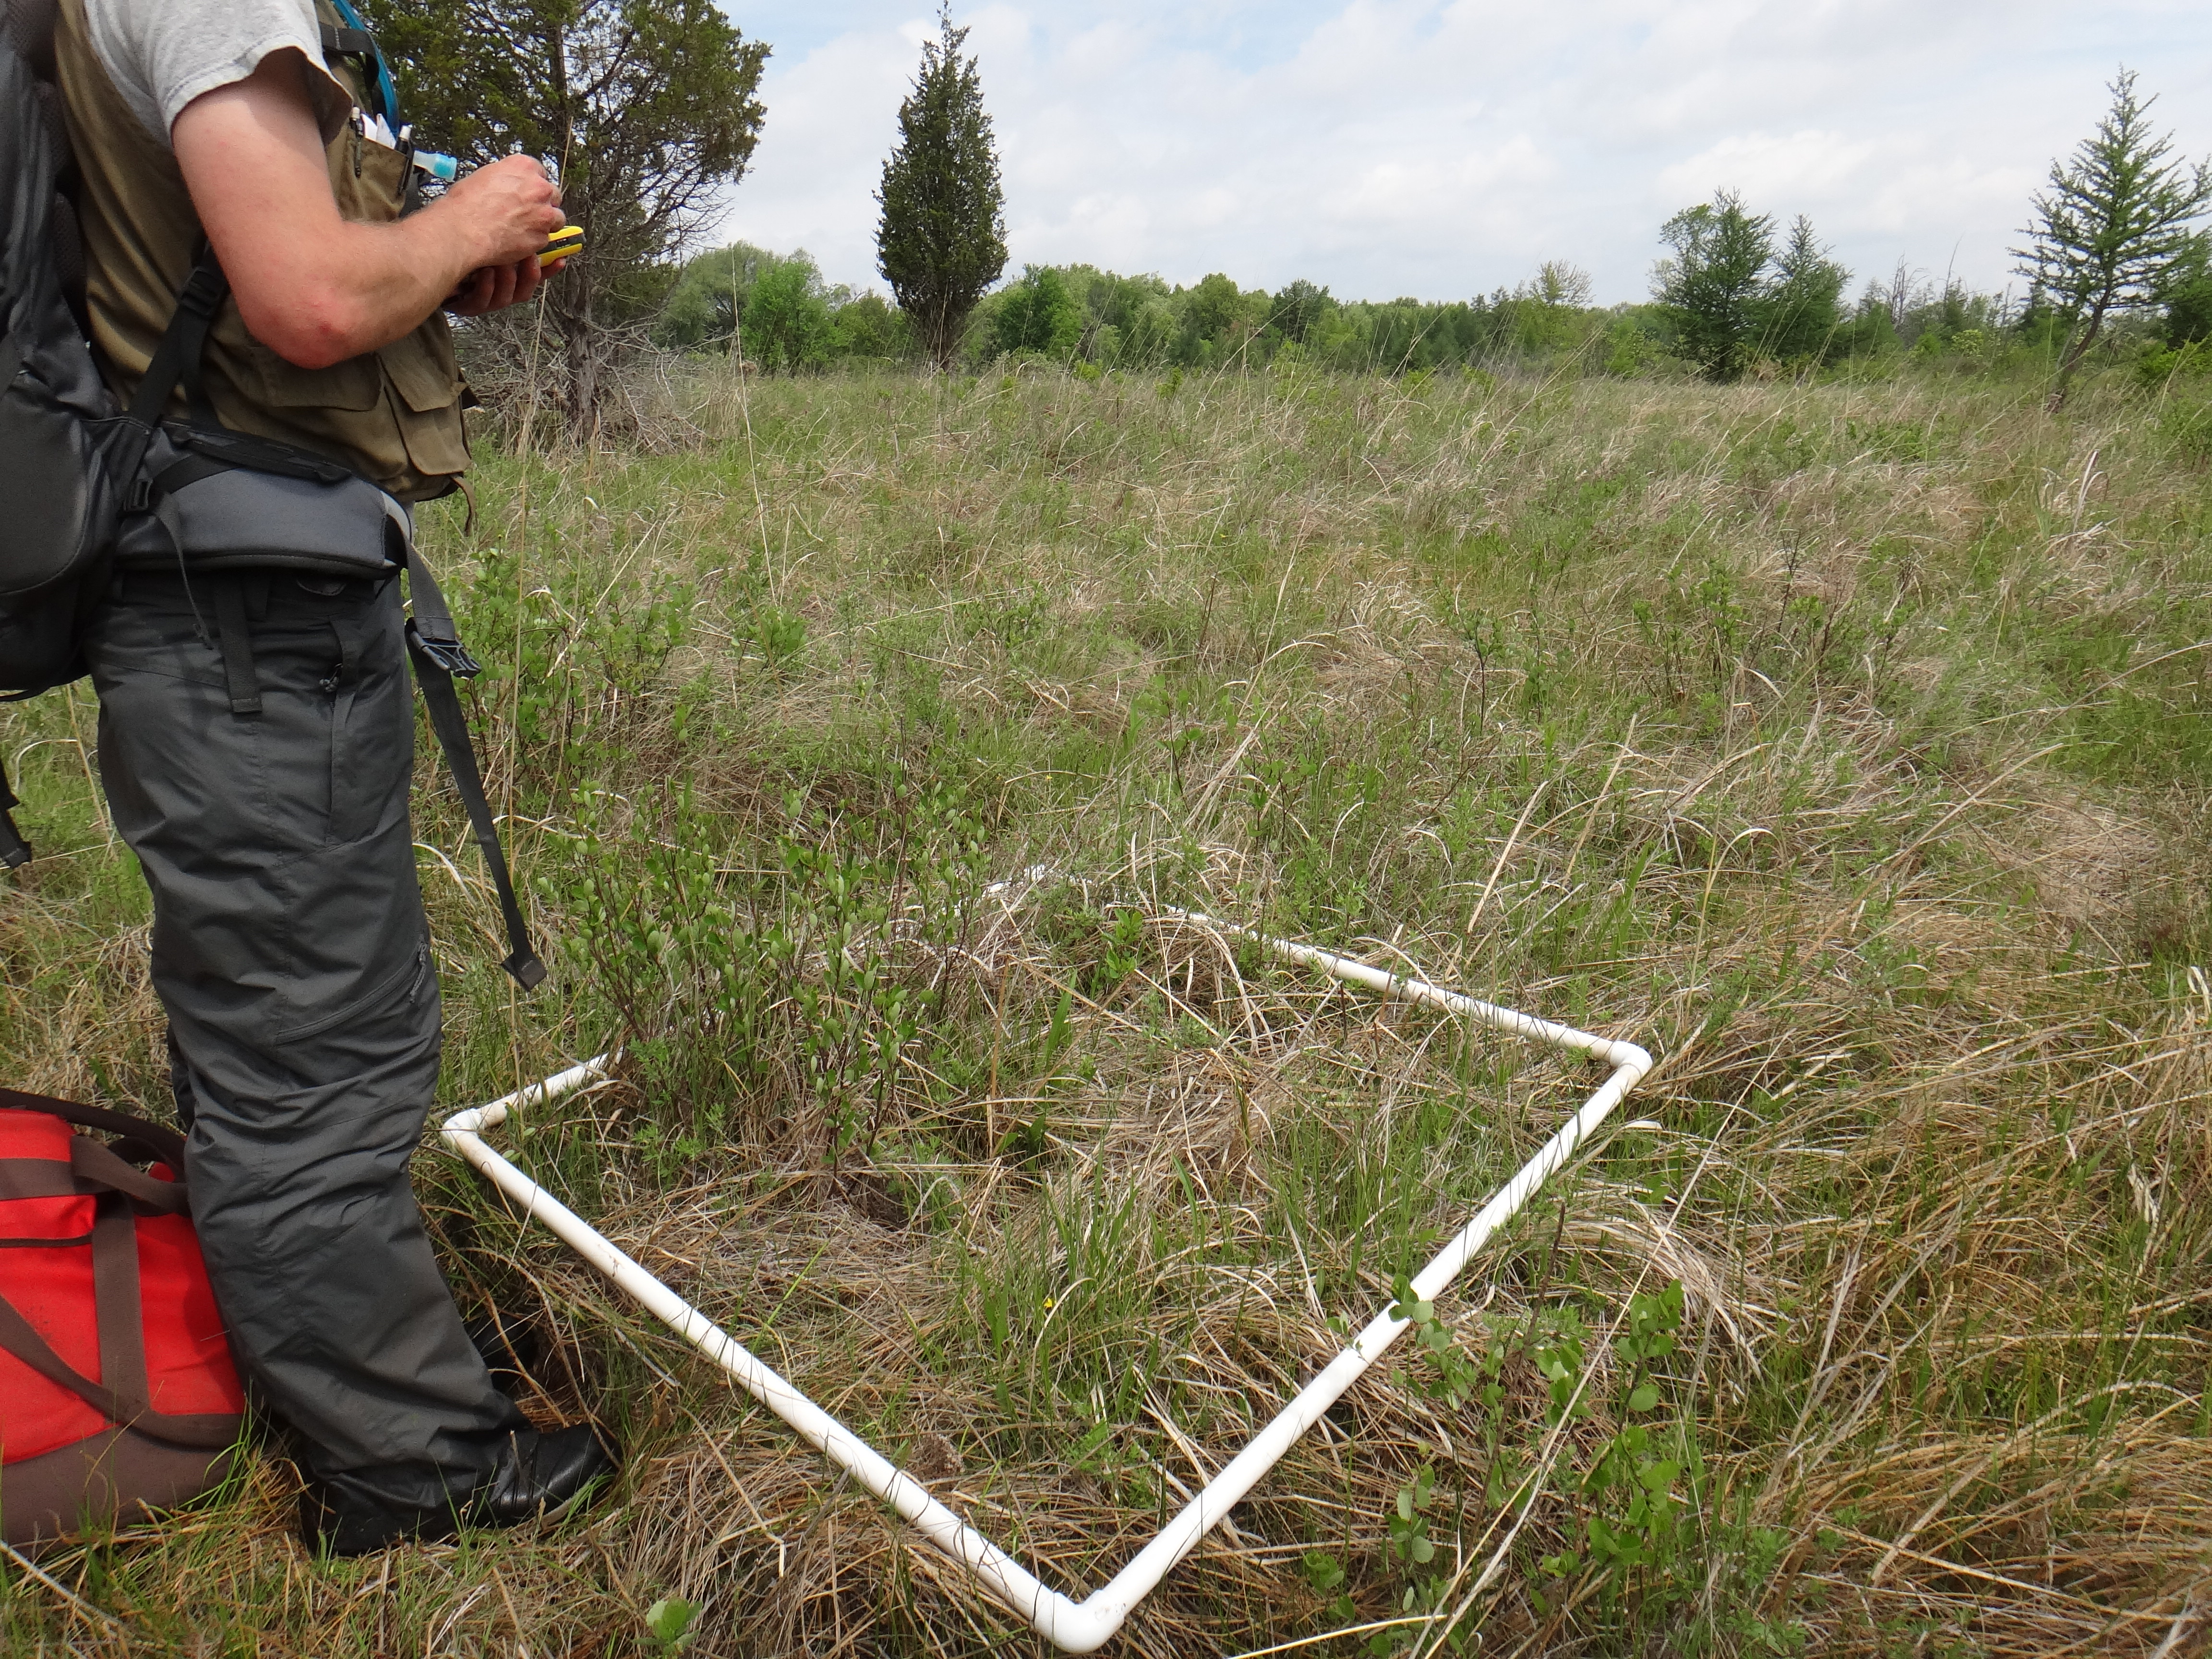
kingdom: Plantae
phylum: Tracheophyta
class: Magnoliopsida
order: Celastrales
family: Parnassiaceae
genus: Parnassia
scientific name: Parnassia glauca
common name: American grass-of-parnassus
